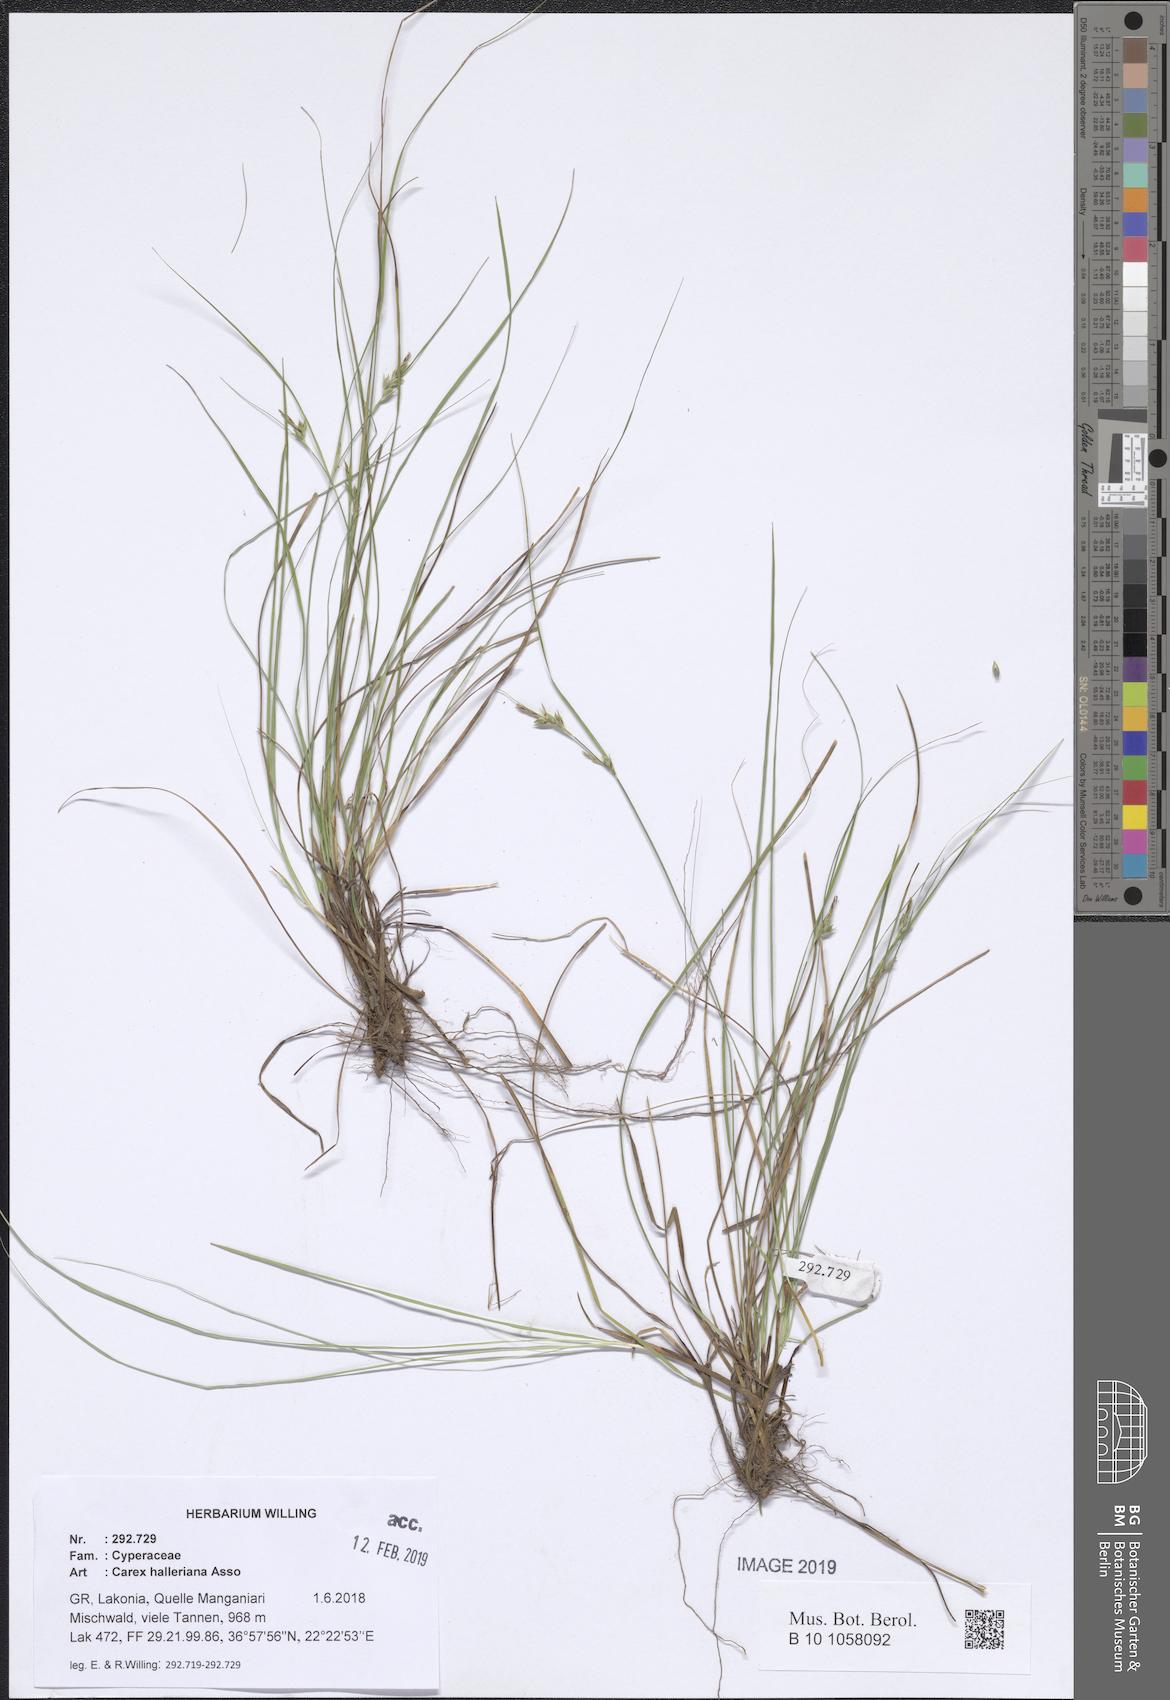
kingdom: Plantae
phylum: Tracheophyta
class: Liliopsida
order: Poales
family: Cyperaceae
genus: Carex
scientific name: Carex halleriana
